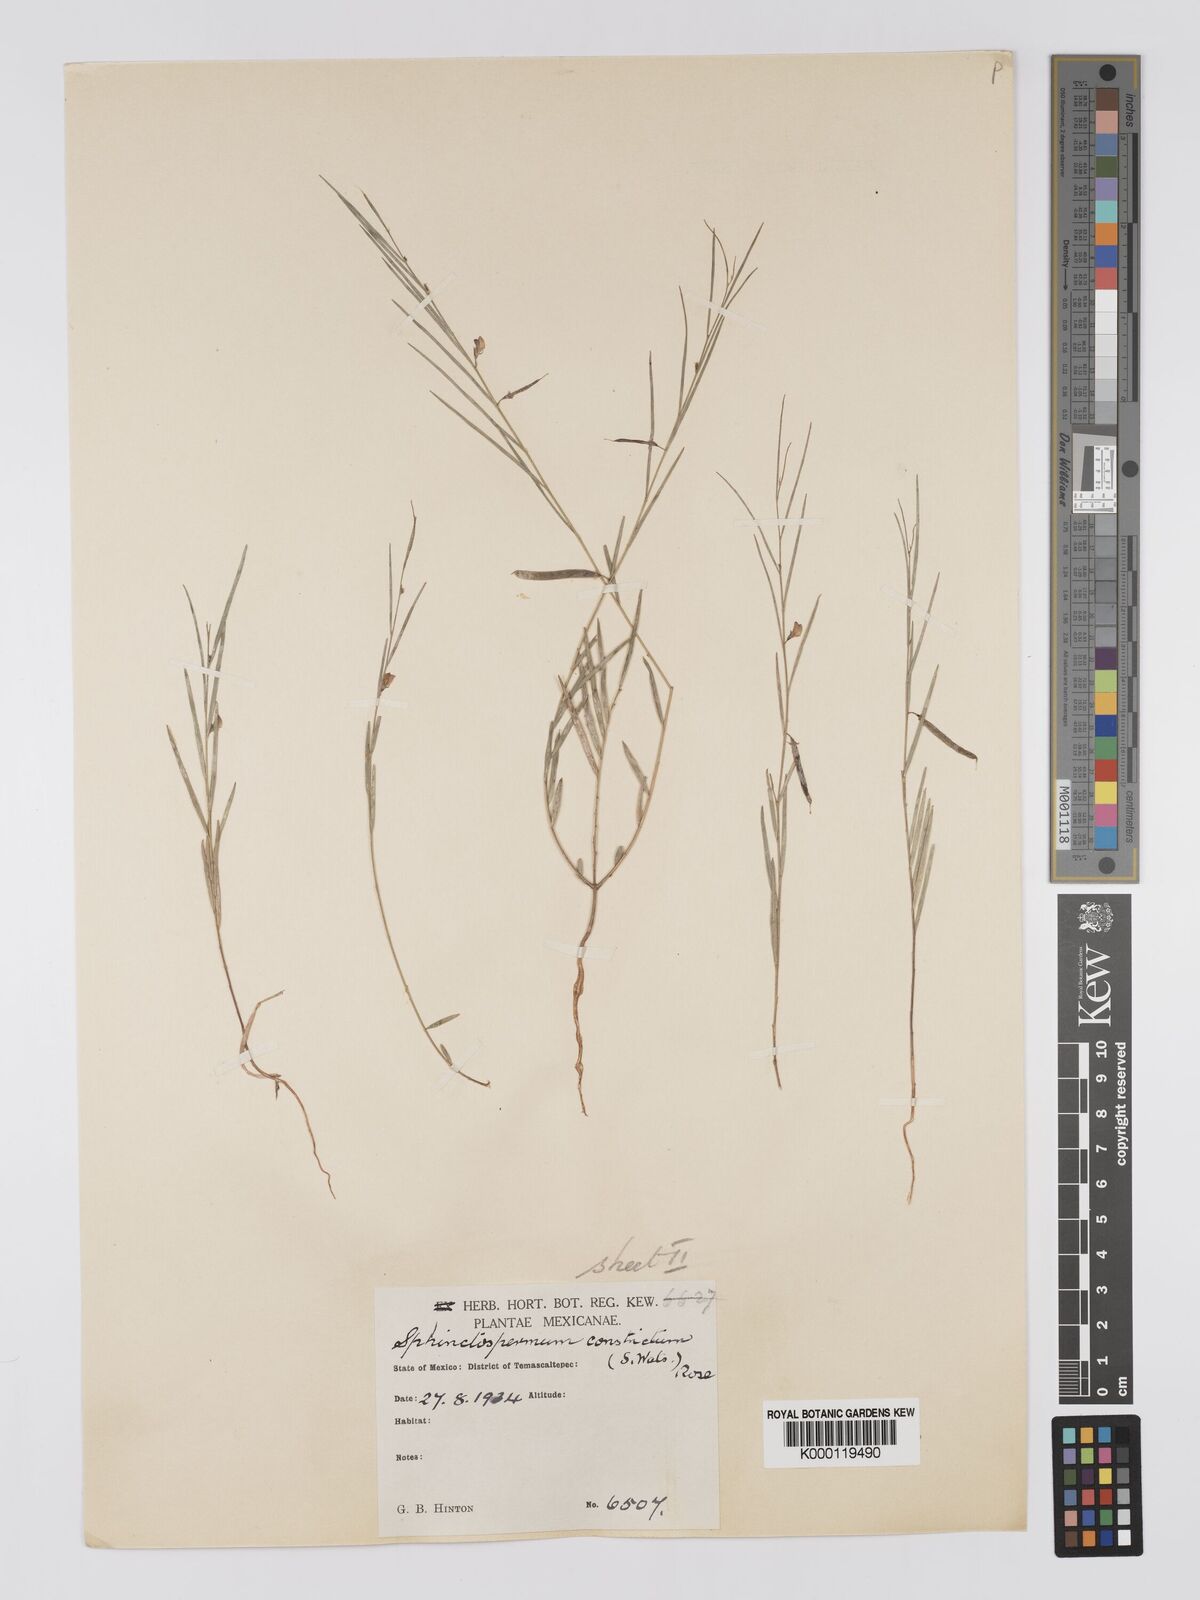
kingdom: Plantae
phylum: Tracheophyta
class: Magnoliopsida
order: Fabales
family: Fabaceae
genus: Sphinctospermum
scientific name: Sphinctospermum constrictum
